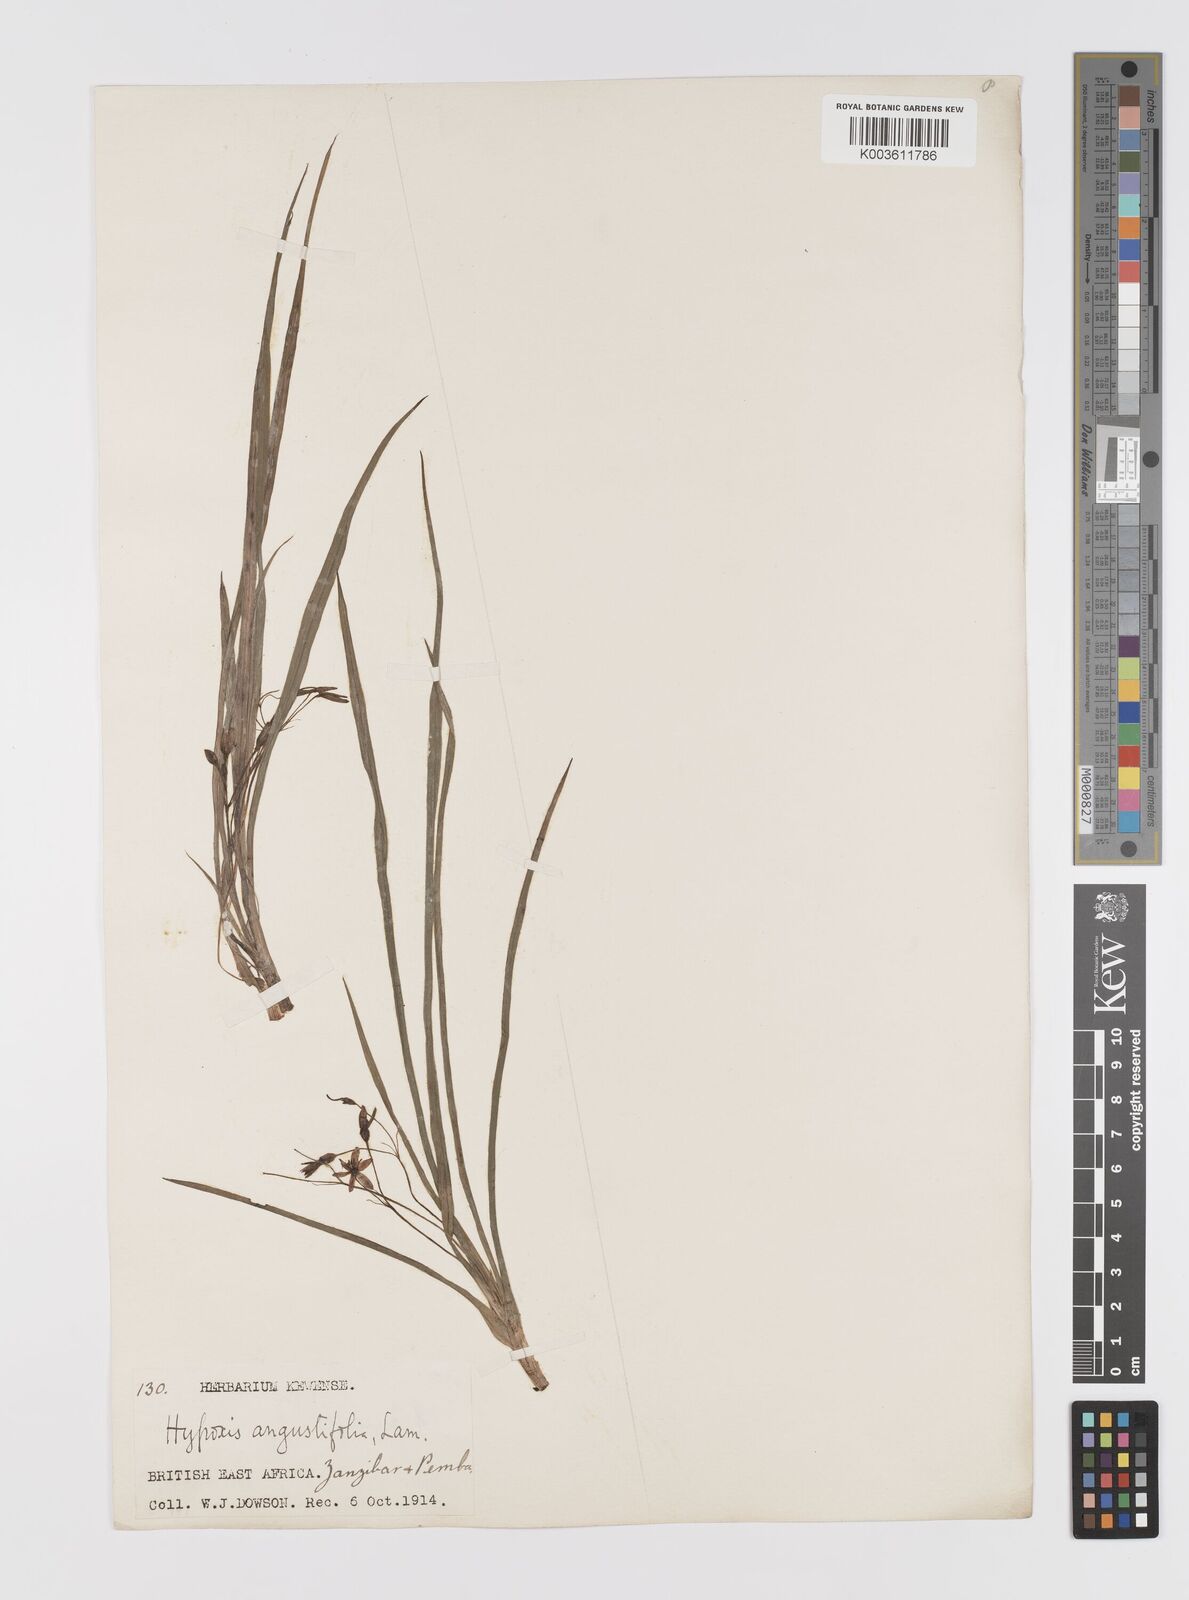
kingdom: Plantae
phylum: Tracheophyta
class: Liliopsida
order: Asparagales
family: Hypoxidaceae
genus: Hypoxis
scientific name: Hypoxis angustifolia
